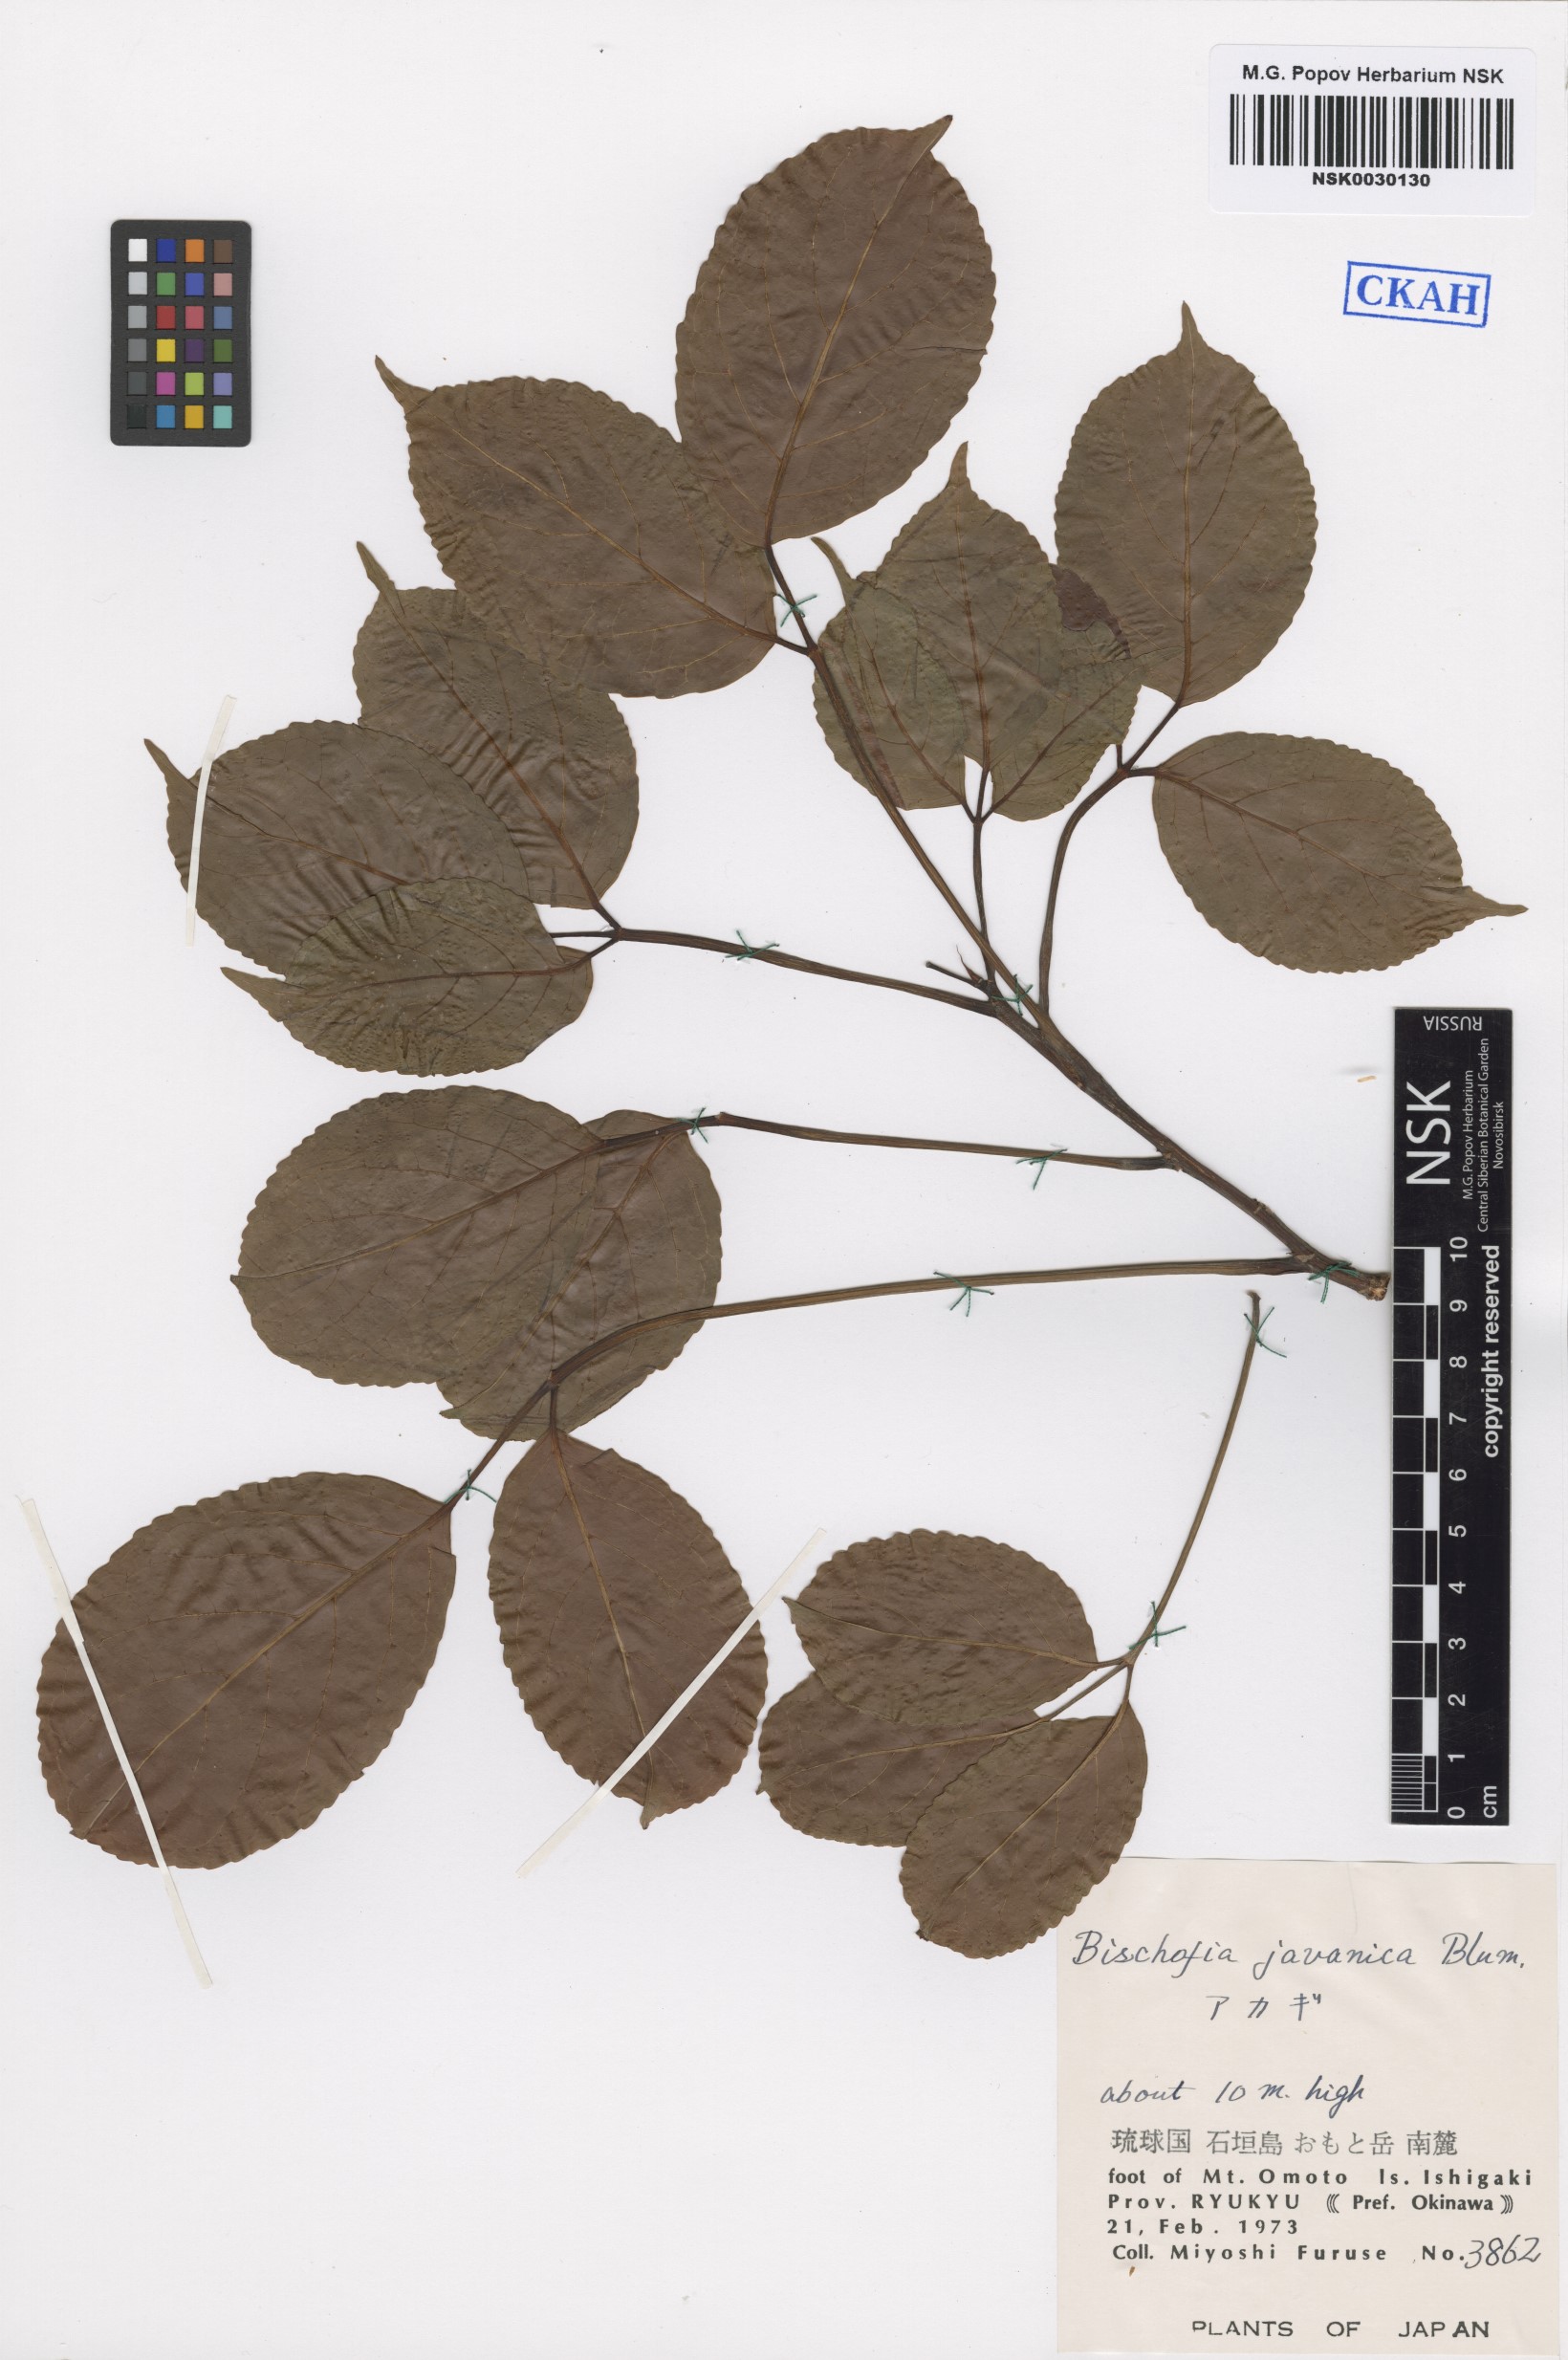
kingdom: Plantae
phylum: Tracheophyta
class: Magnoliopsida
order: Malpighiales
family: Phyllanthaceae
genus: Bischofia
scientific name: Bischofia javanica
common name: Javanese bishopwood
